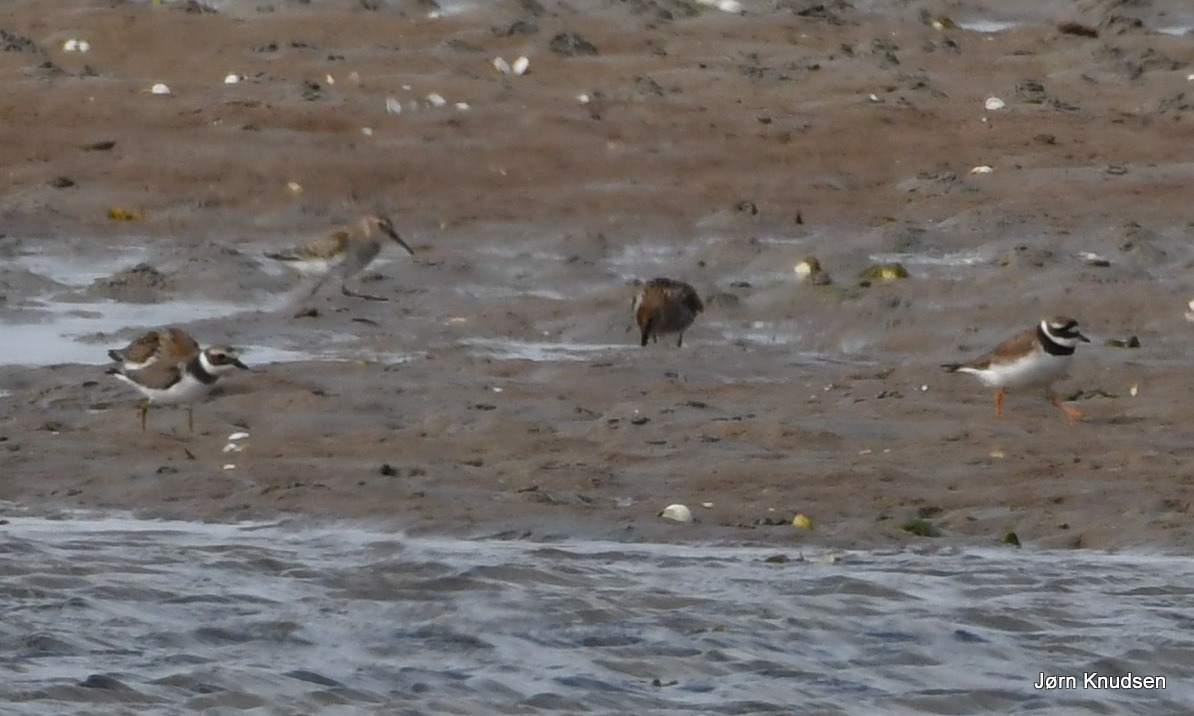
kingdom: Animalia
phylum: Chordata
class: Aves
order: Charadriiformes
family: Charadriidae
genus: Charadrius
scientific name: Charadrius hiaticula
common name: Stor præstekrave
